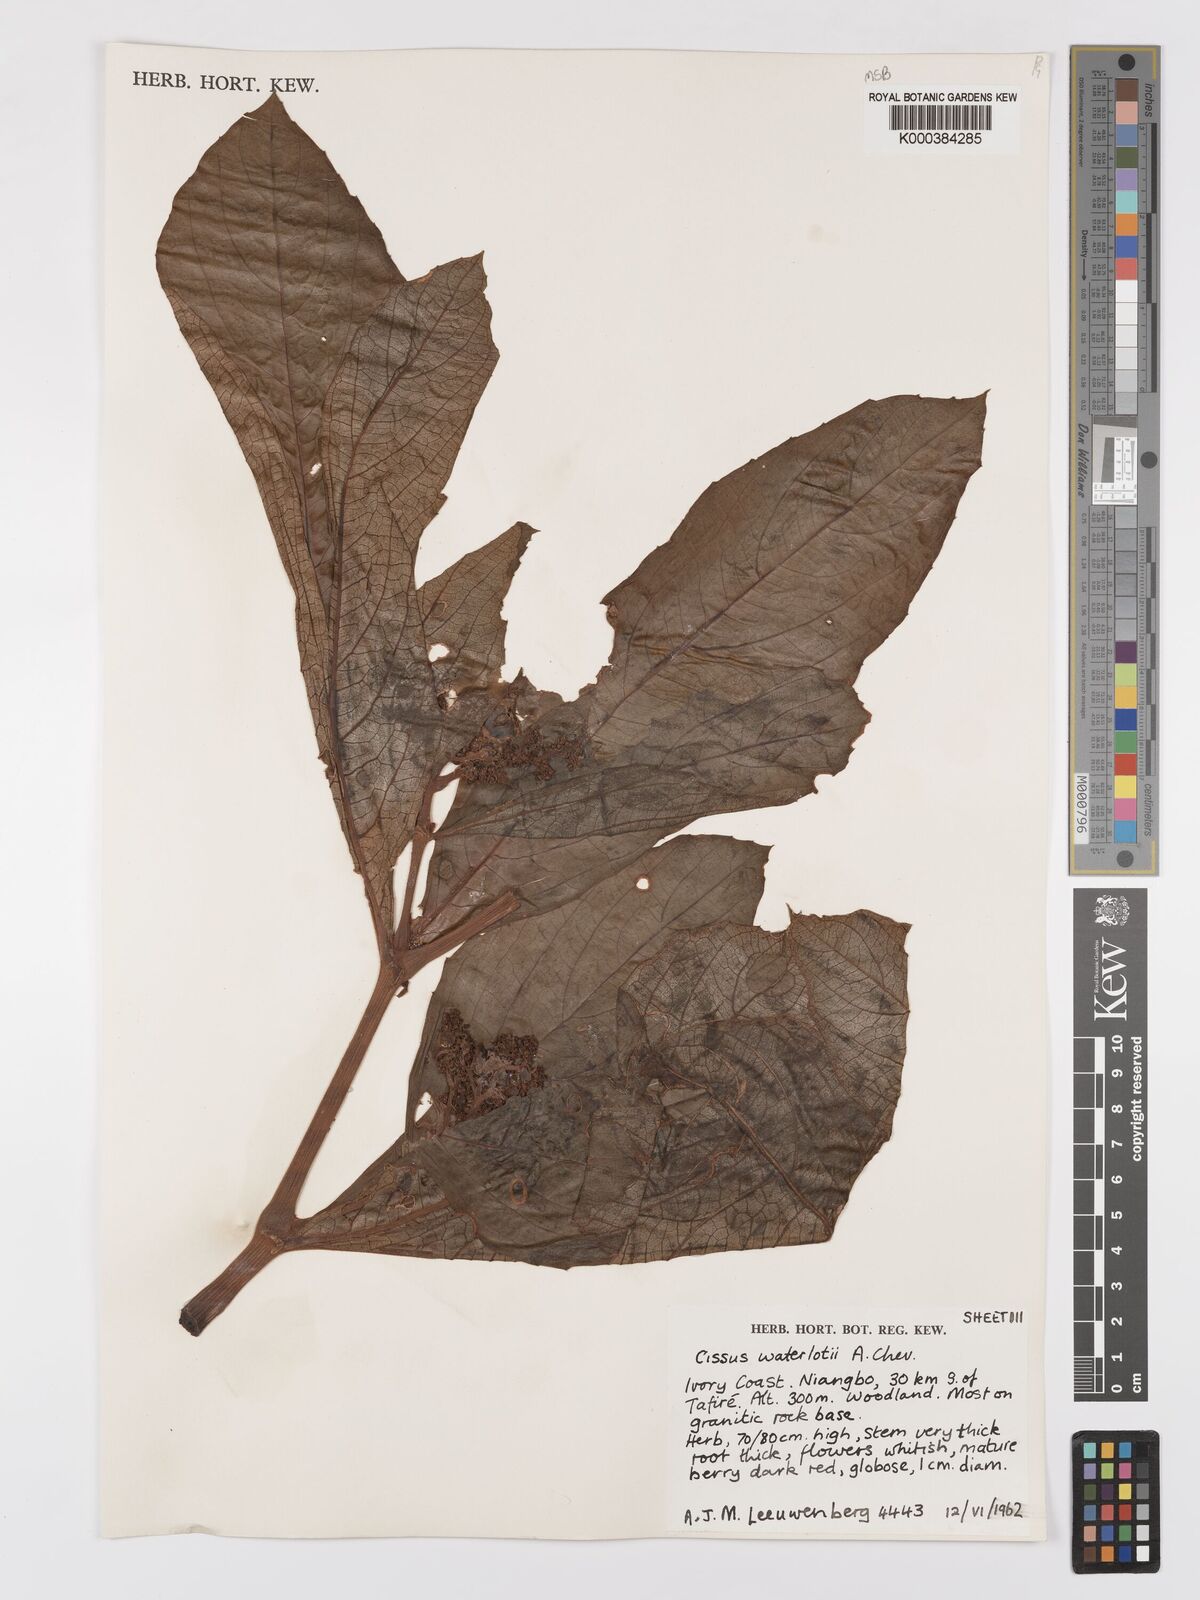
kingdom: Plantae
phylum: Tracheophyta
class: Magnoliopsida
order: Vitales
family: Vitaceae
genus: Cyphostemma
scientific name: Cyphostemma waterlotii
